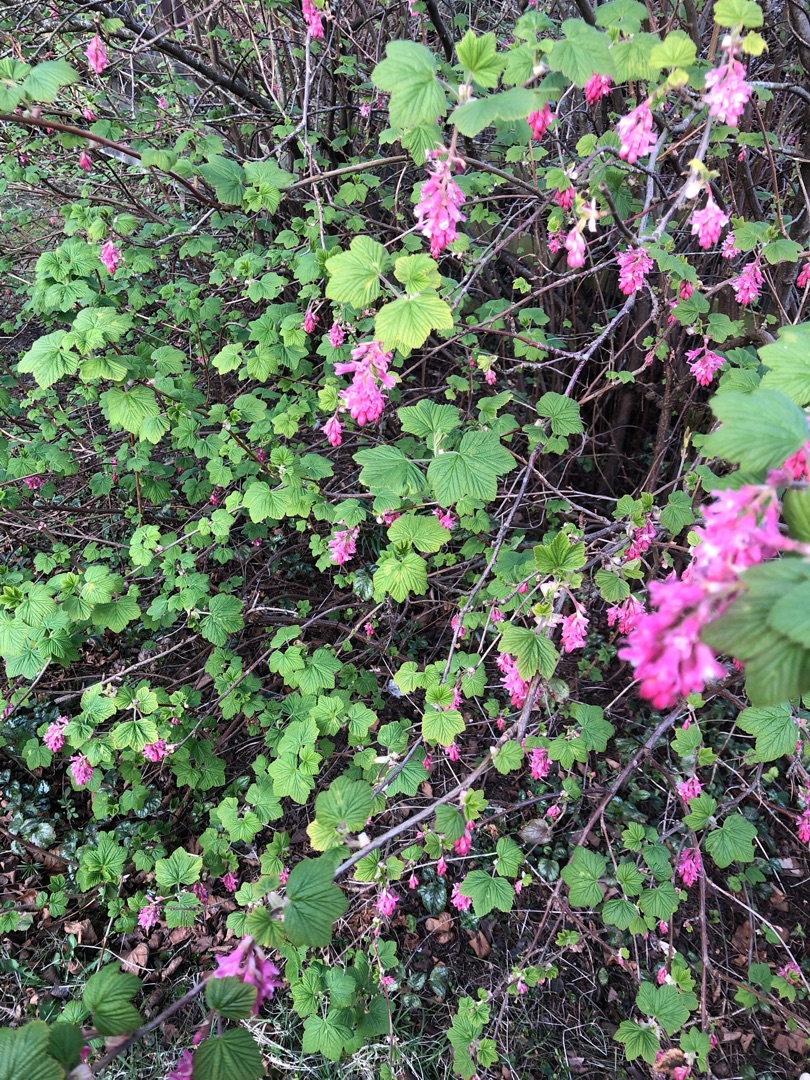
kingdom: Plantae
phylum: Tracheophyta
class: Magnoliopsida
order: Saxifragales
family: Grossulariaceae
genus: Ribes
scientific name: Ribes sanguineum
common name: Blod-ribs
